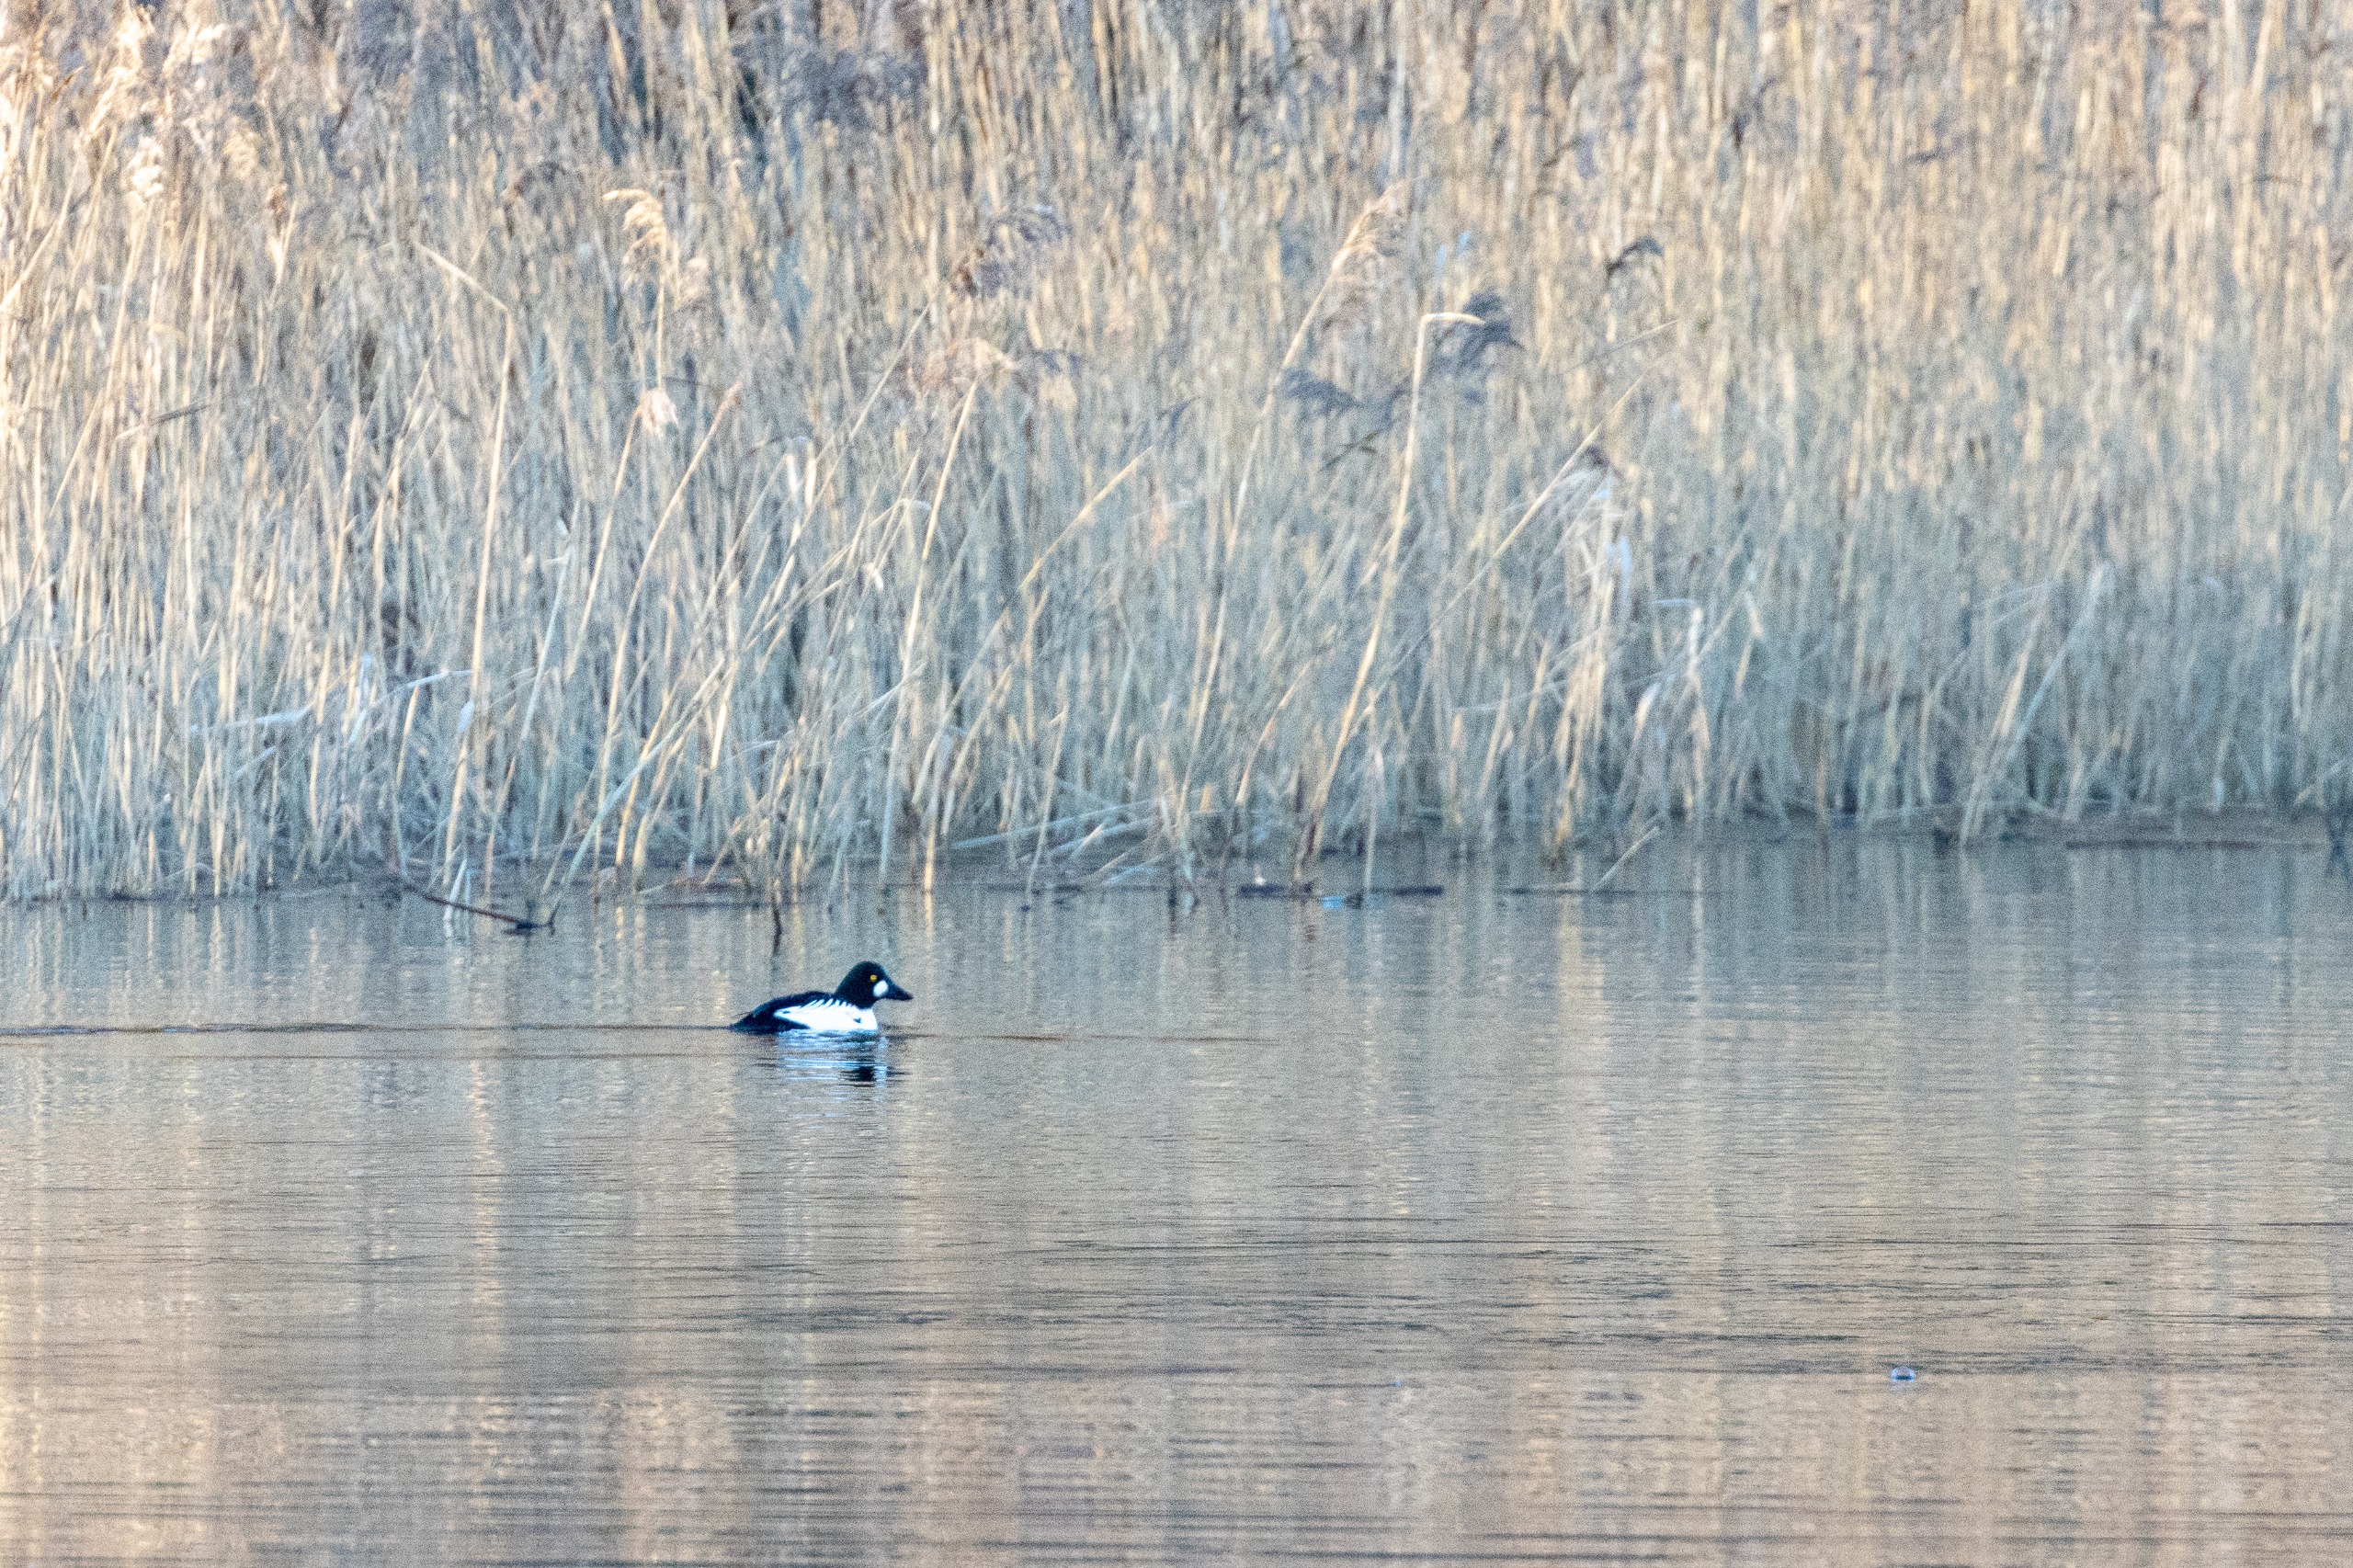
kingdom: Animalia
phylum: Chordata
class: Aves
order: Anseriformes
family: Anatidae
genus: Bucephala
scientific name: Bucephala clangula
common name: Hvinand
